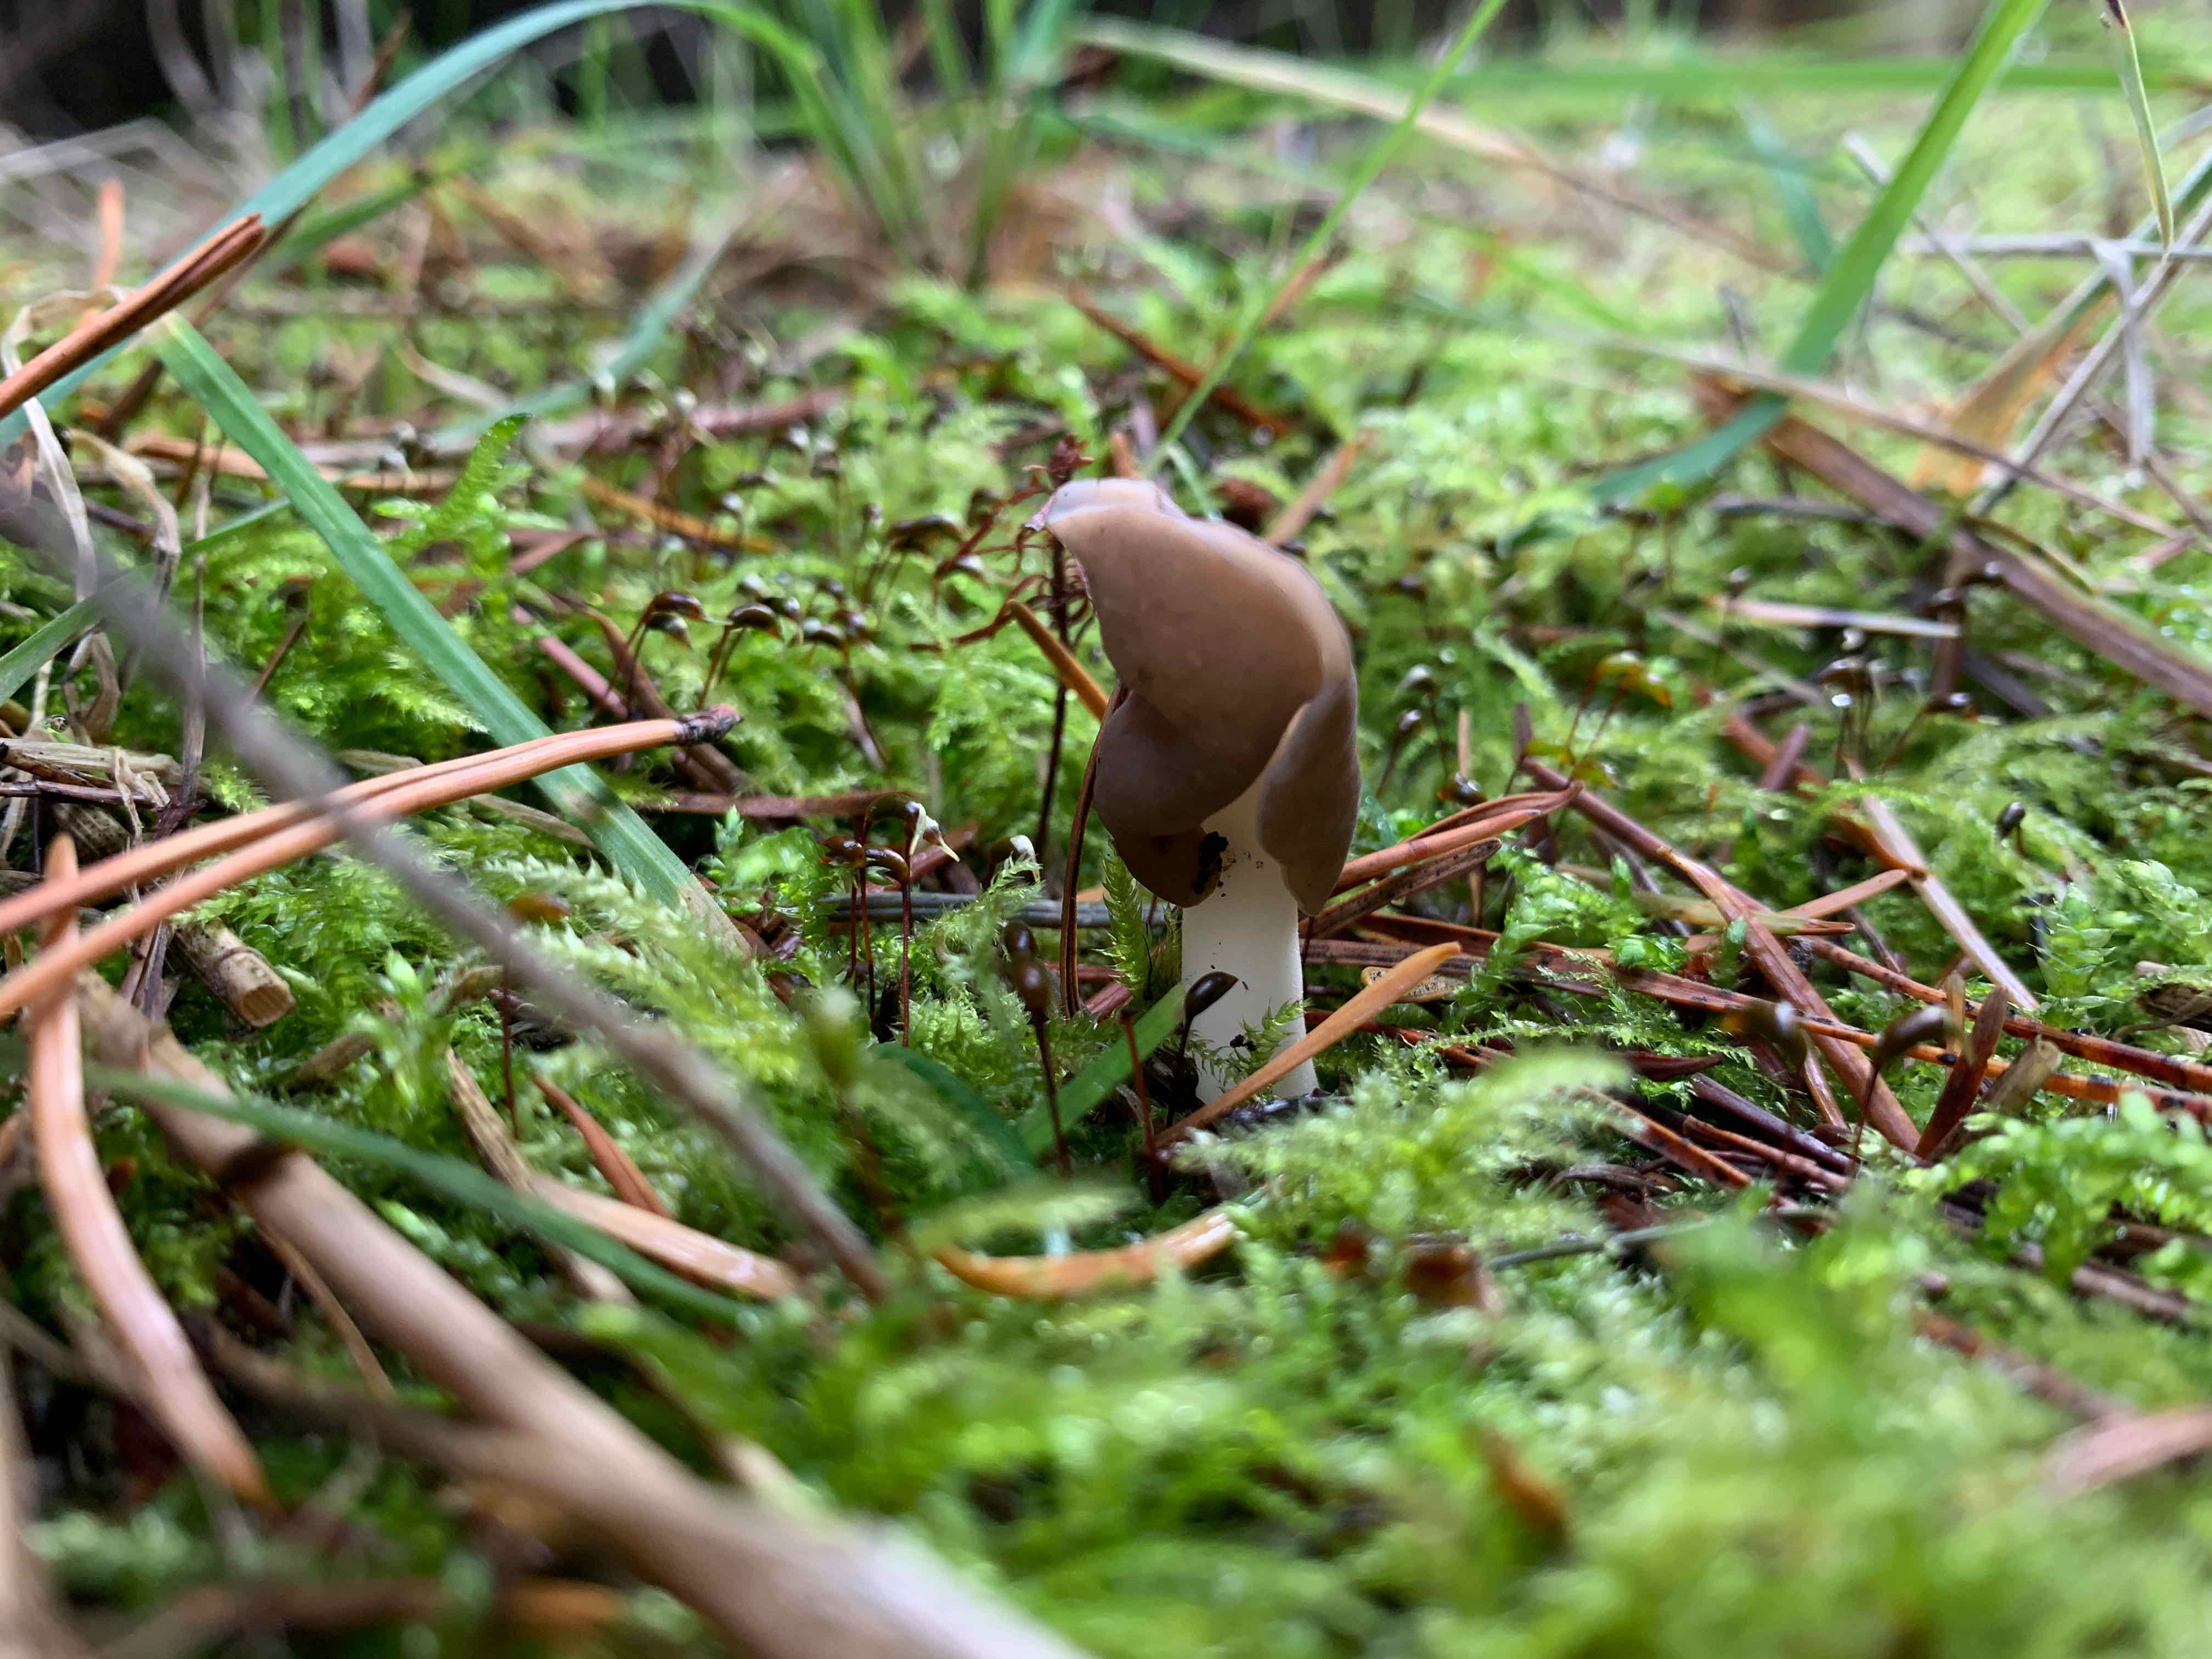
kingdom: Fungi
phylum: Ascomycota
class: Pezizomycetes
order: Pezizales
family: Helvellaceae
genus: Helvella
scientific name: Helvella elastica
